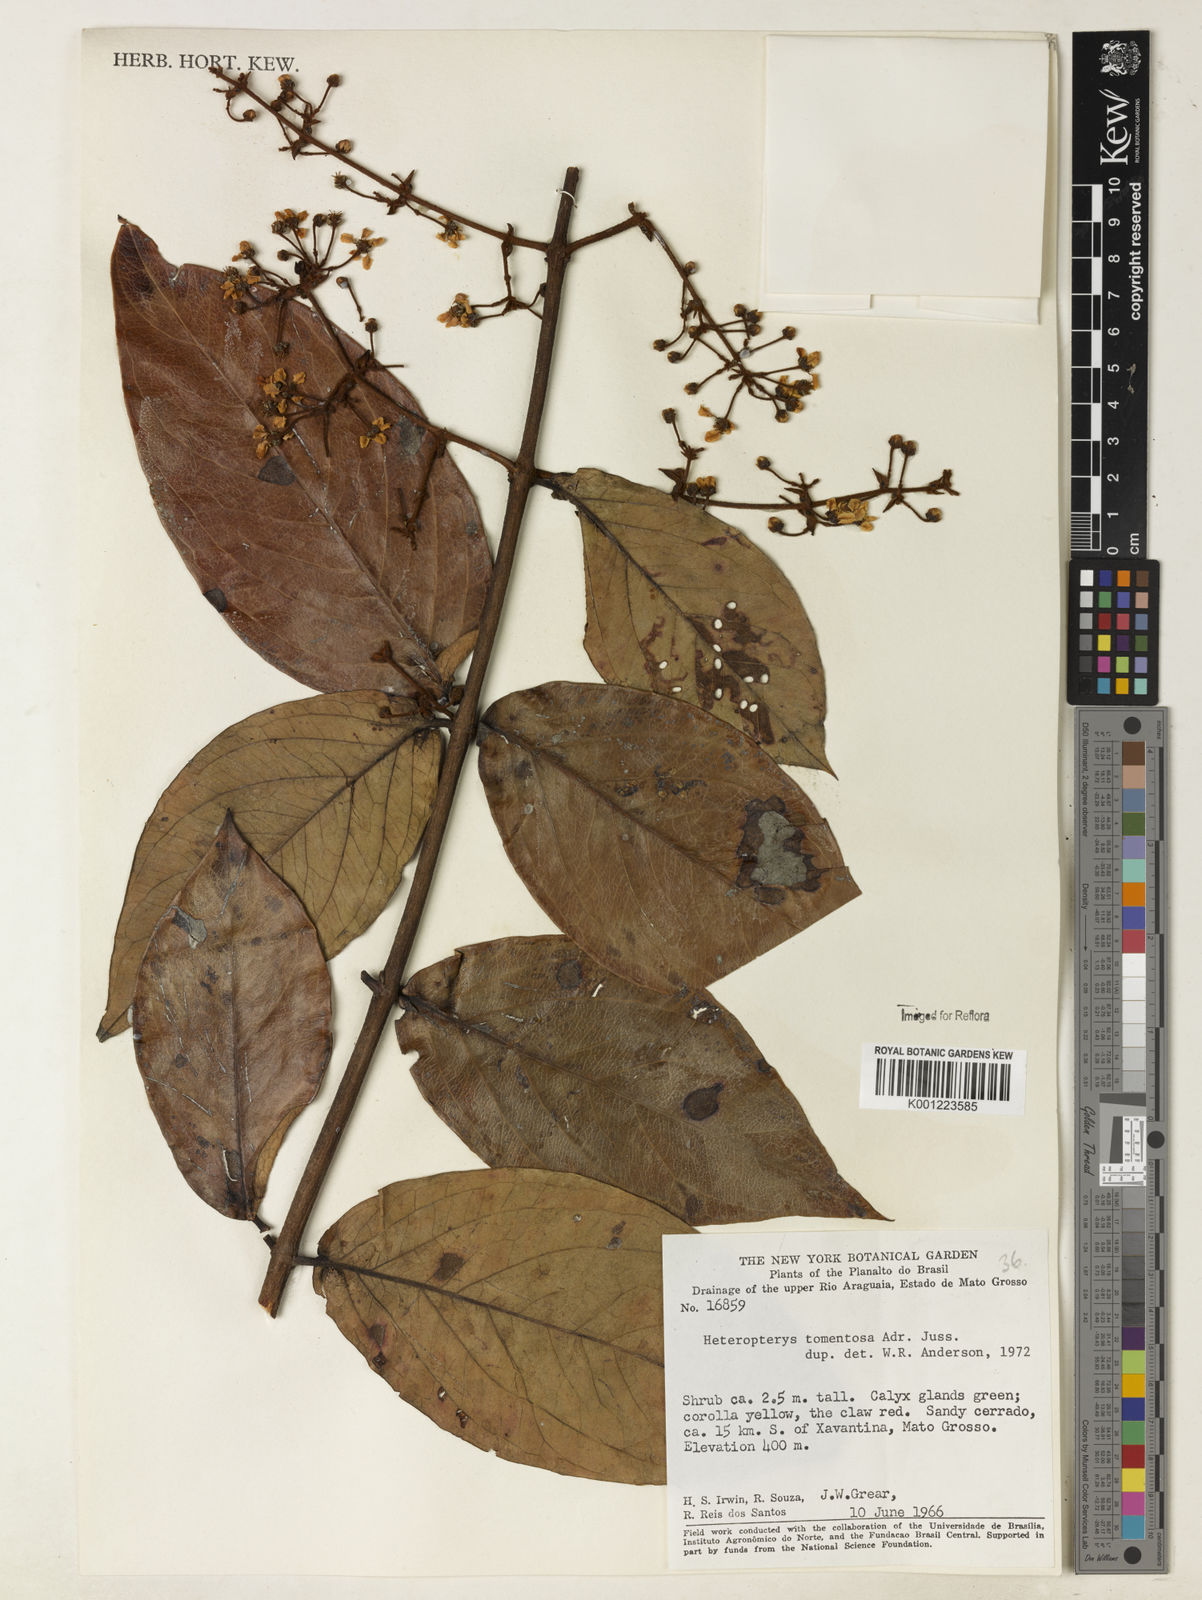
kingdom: Plantae
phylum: Tracheophyta
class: Magnoliopsida
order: Malpighiales
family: Malpighiaceae
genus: Heteropterys
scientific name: Heteropterys tomentosa
